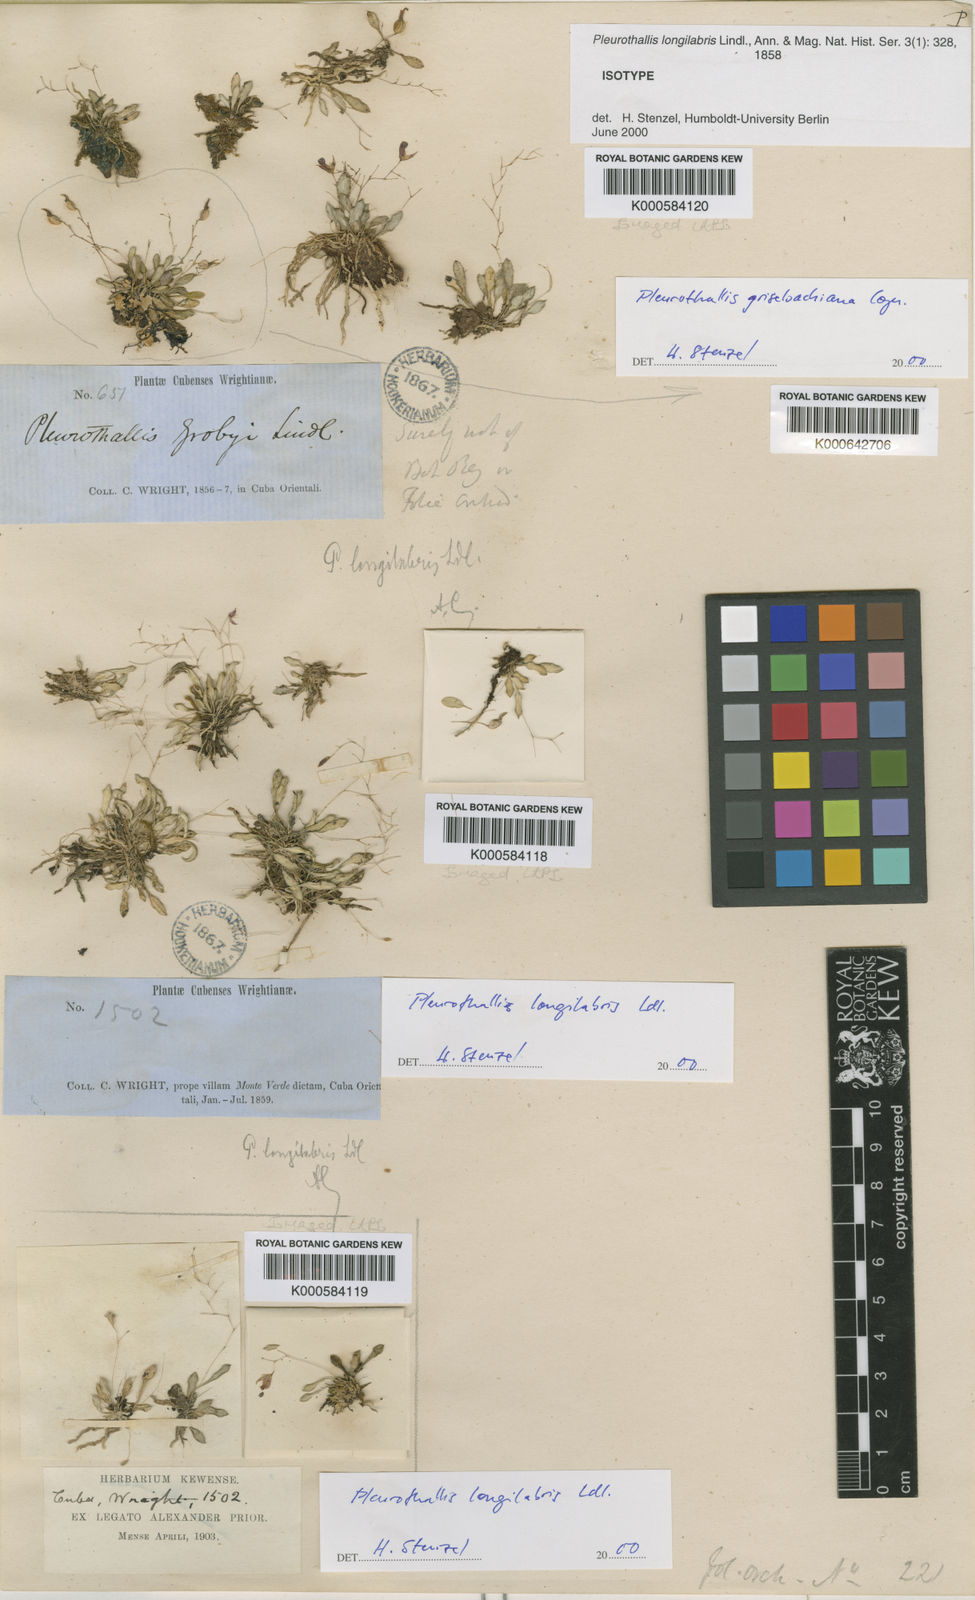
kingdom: Plantae
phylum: Tracheophyta
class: Liliopsida
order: Asparagales
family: Orchidaceae
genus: Muscarella
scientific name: Muscarella longilabris
